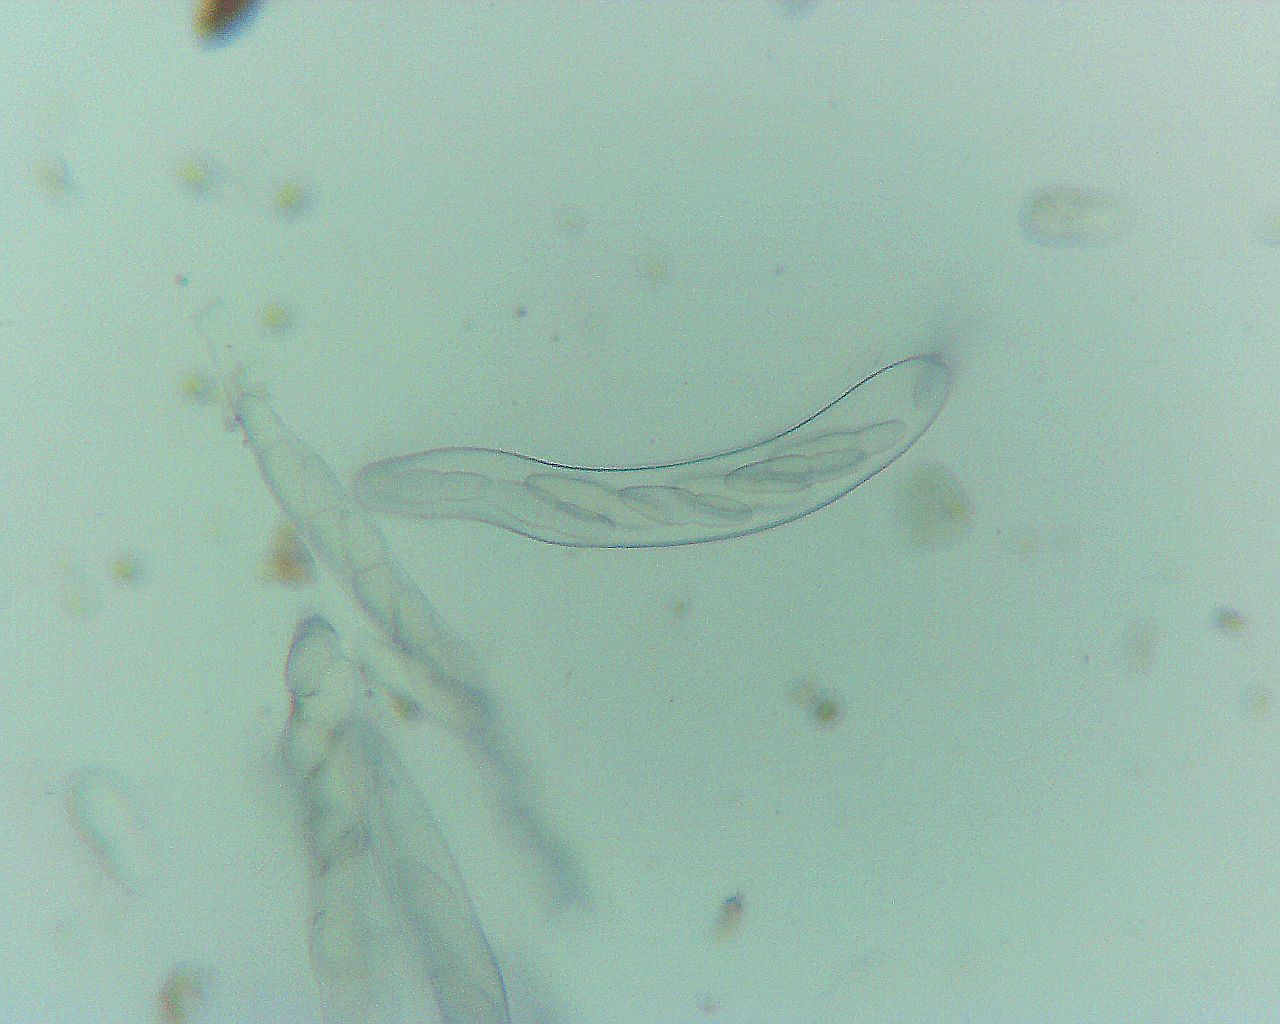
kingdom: Fungi
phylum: Ascomycota
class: Dothideomycetes
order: Botryosphaeriales
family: Botryosphaeriaceae
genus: Dothiora
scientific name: Dothiora ribesia
